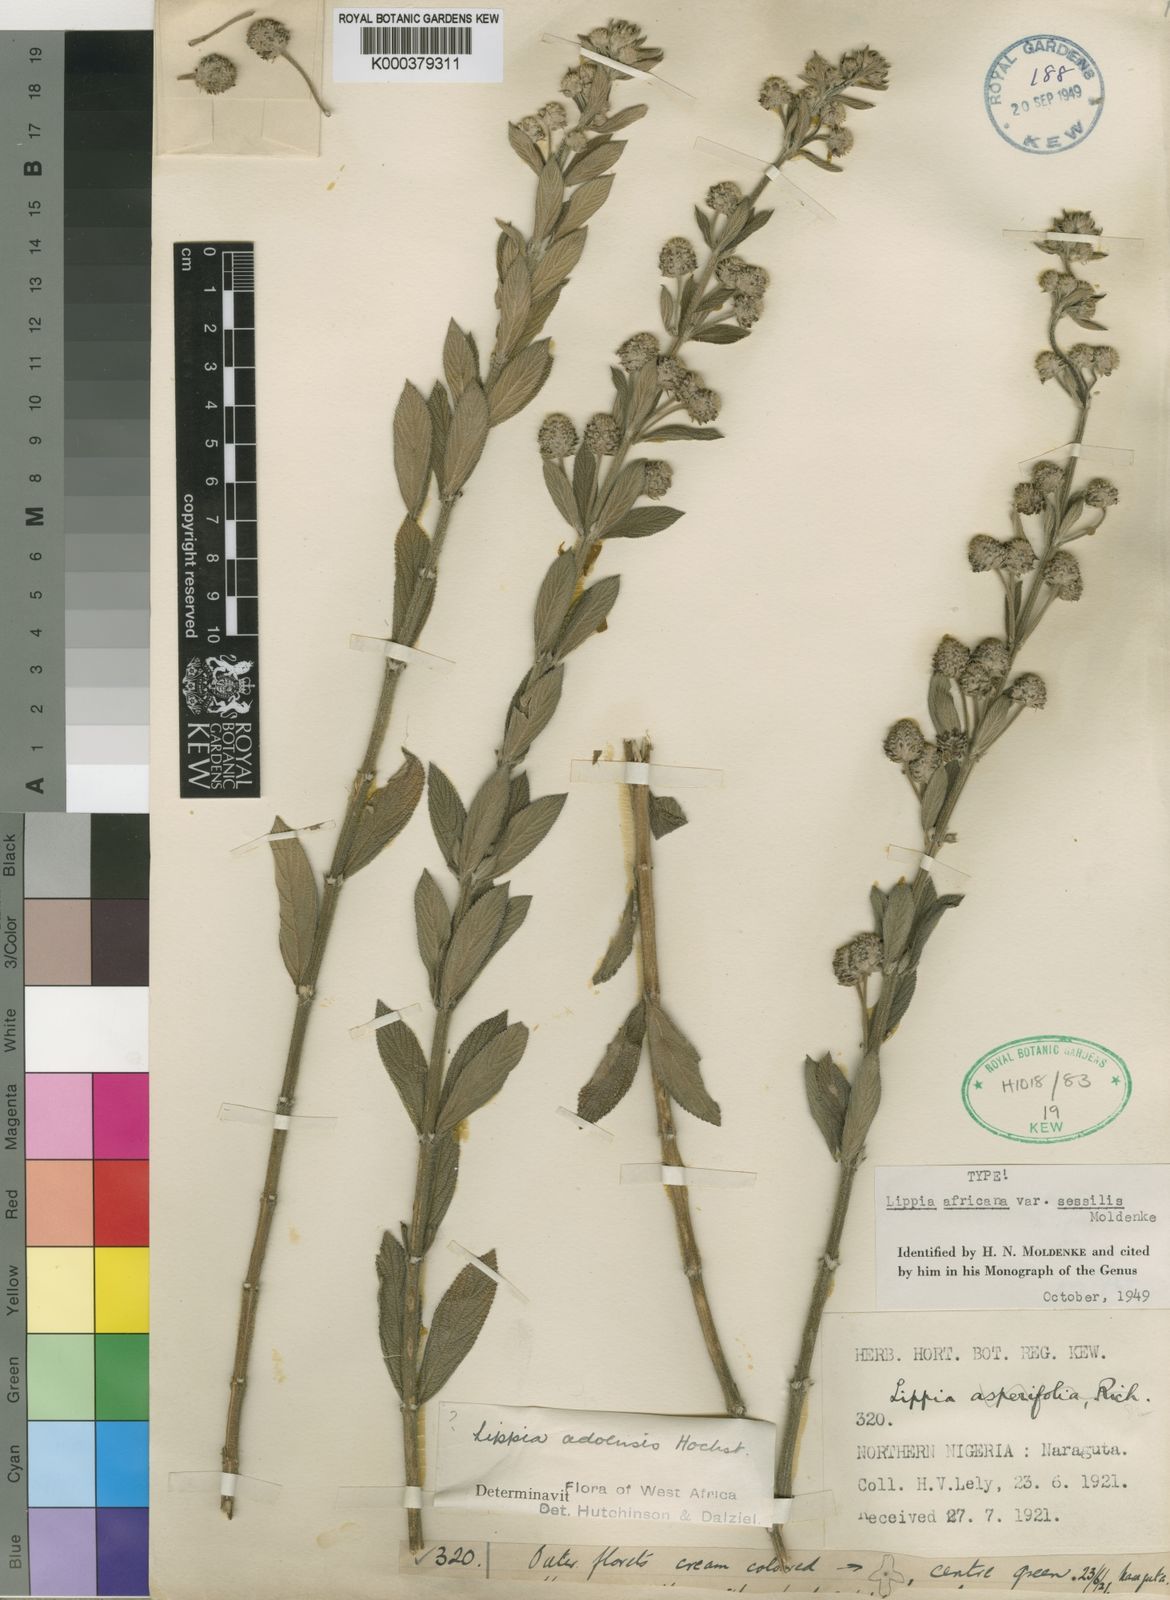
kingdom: Plantae
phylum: Tracheophyta
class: Magnoliopsida
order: Lamiales
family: Verbenaceae
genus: Lippia
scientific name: Lippia savoryi
